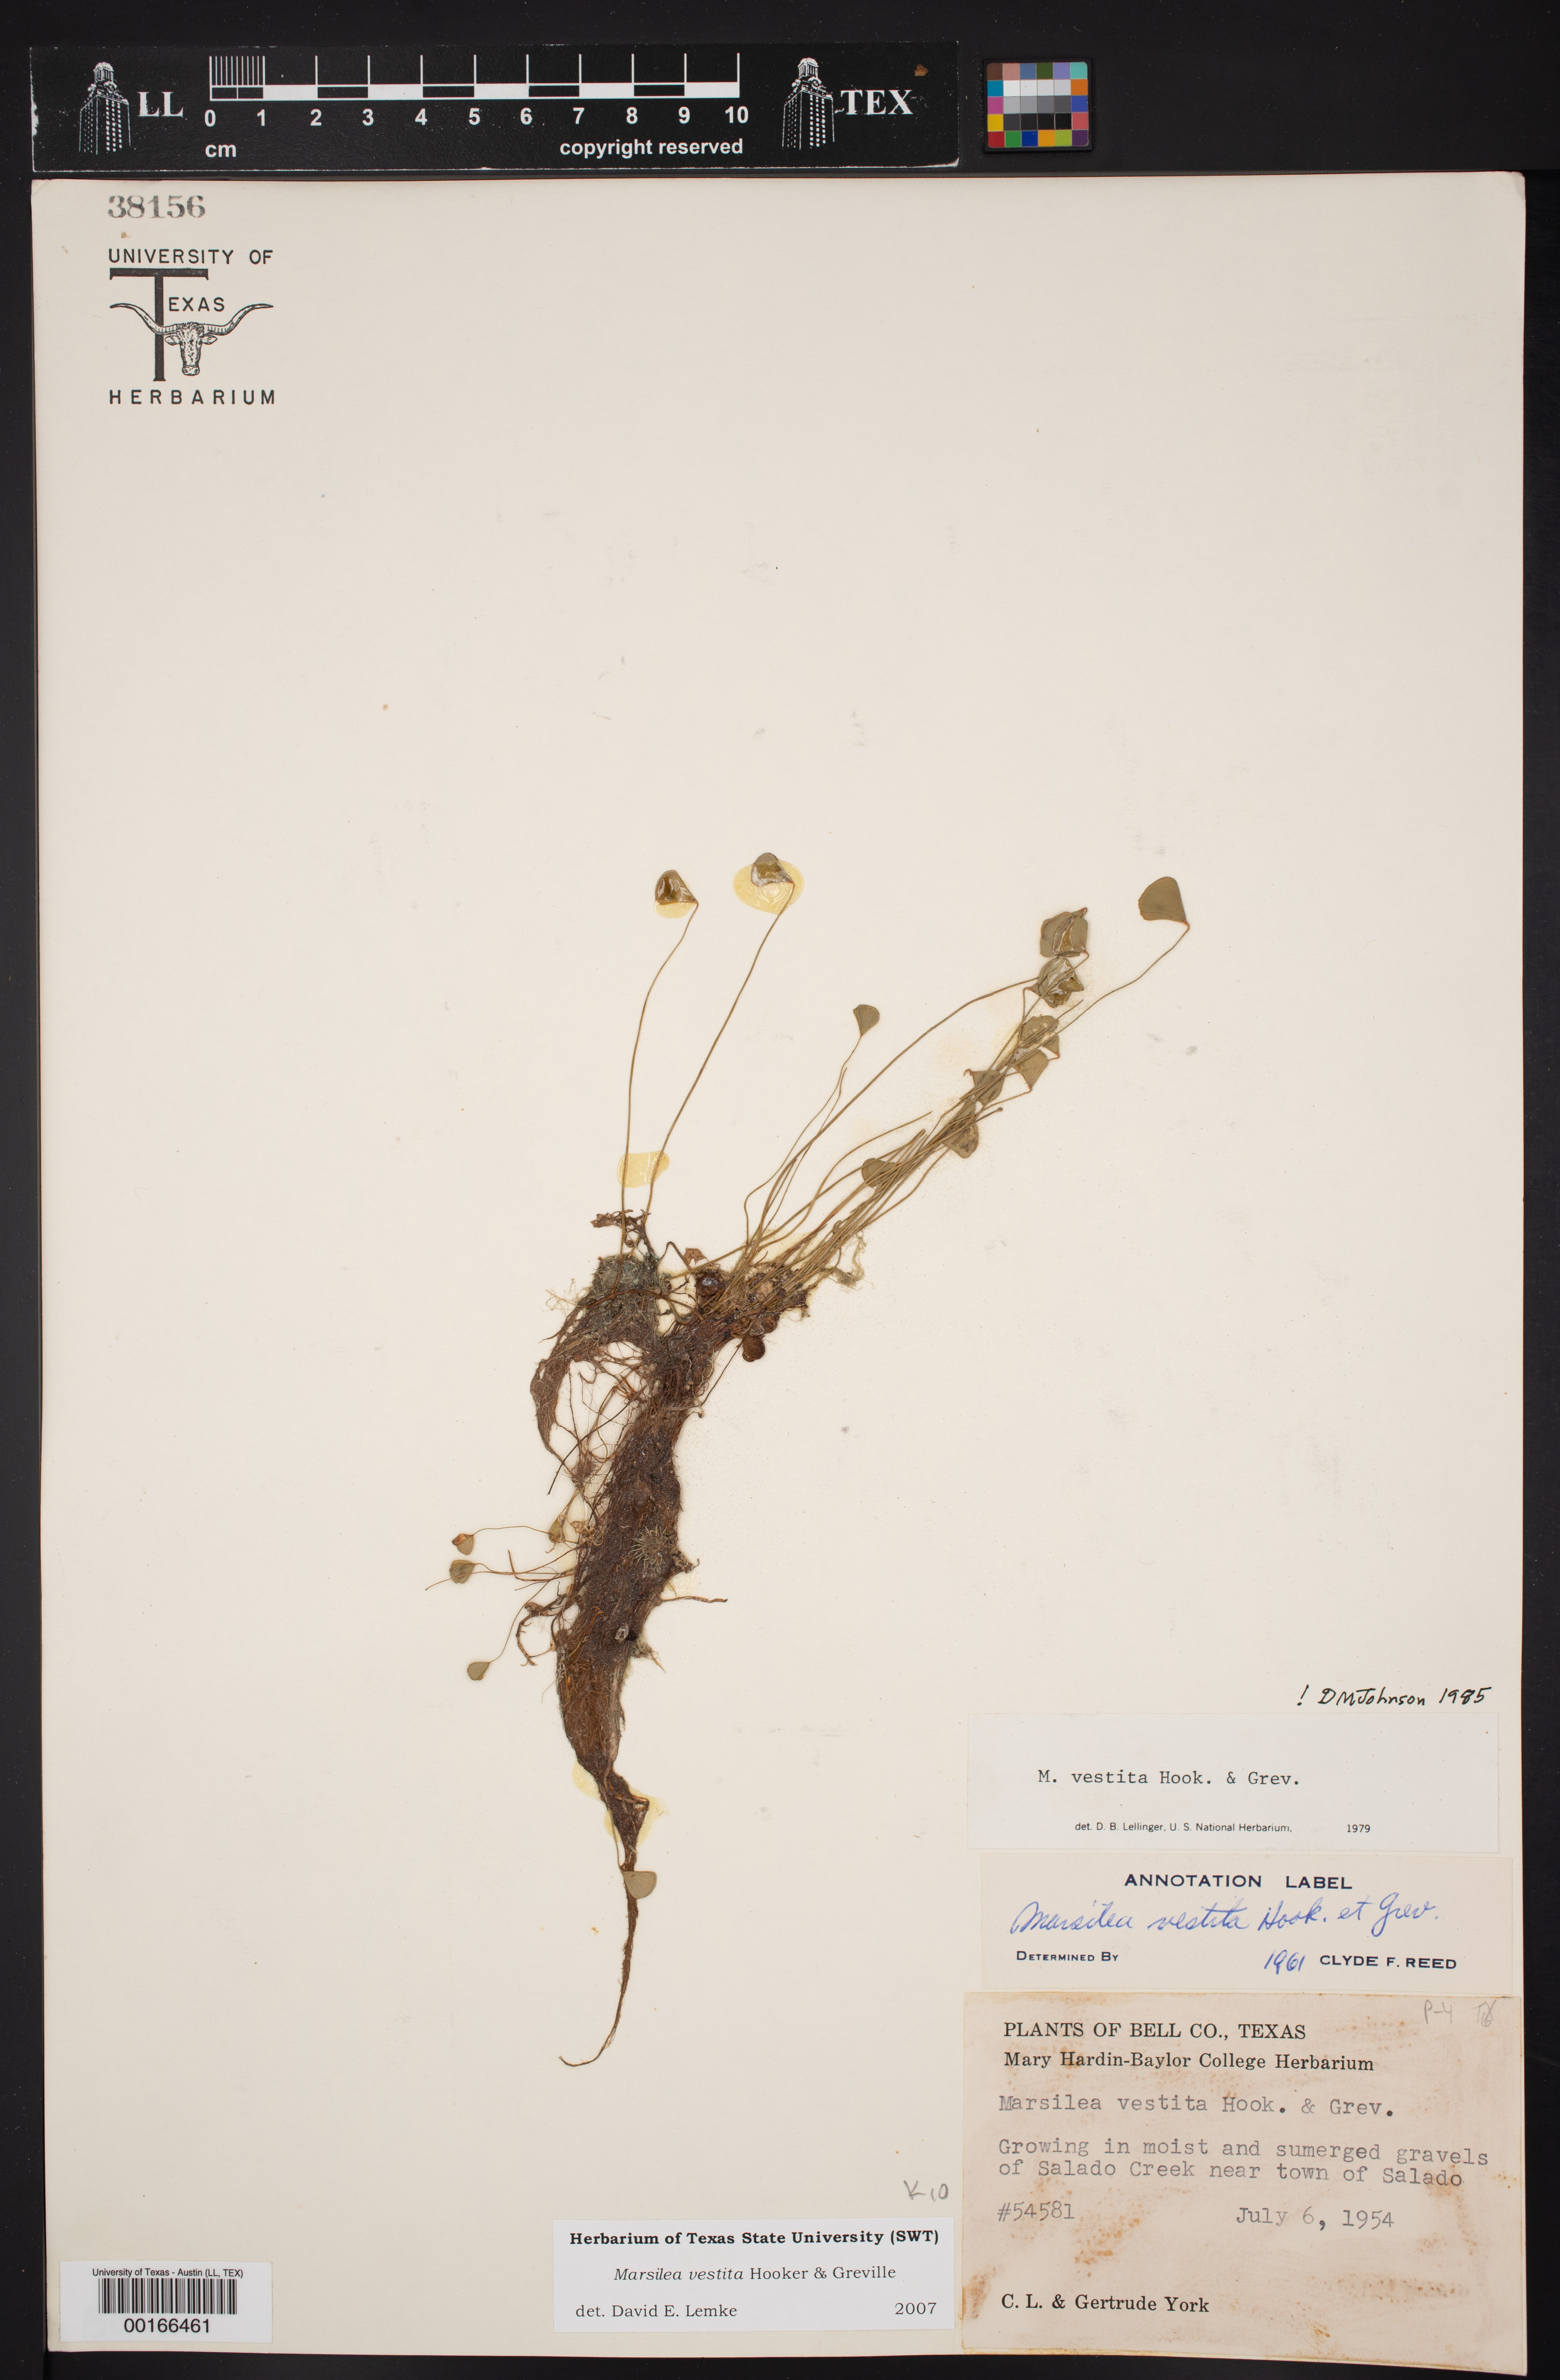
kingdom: Plantae
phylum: Tracheophyta
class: Polypodiopsida
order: Salviniales
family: Marsileaceae
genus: Marsilea
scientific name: Marsilea vestita
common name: Hooked-pepperwort
